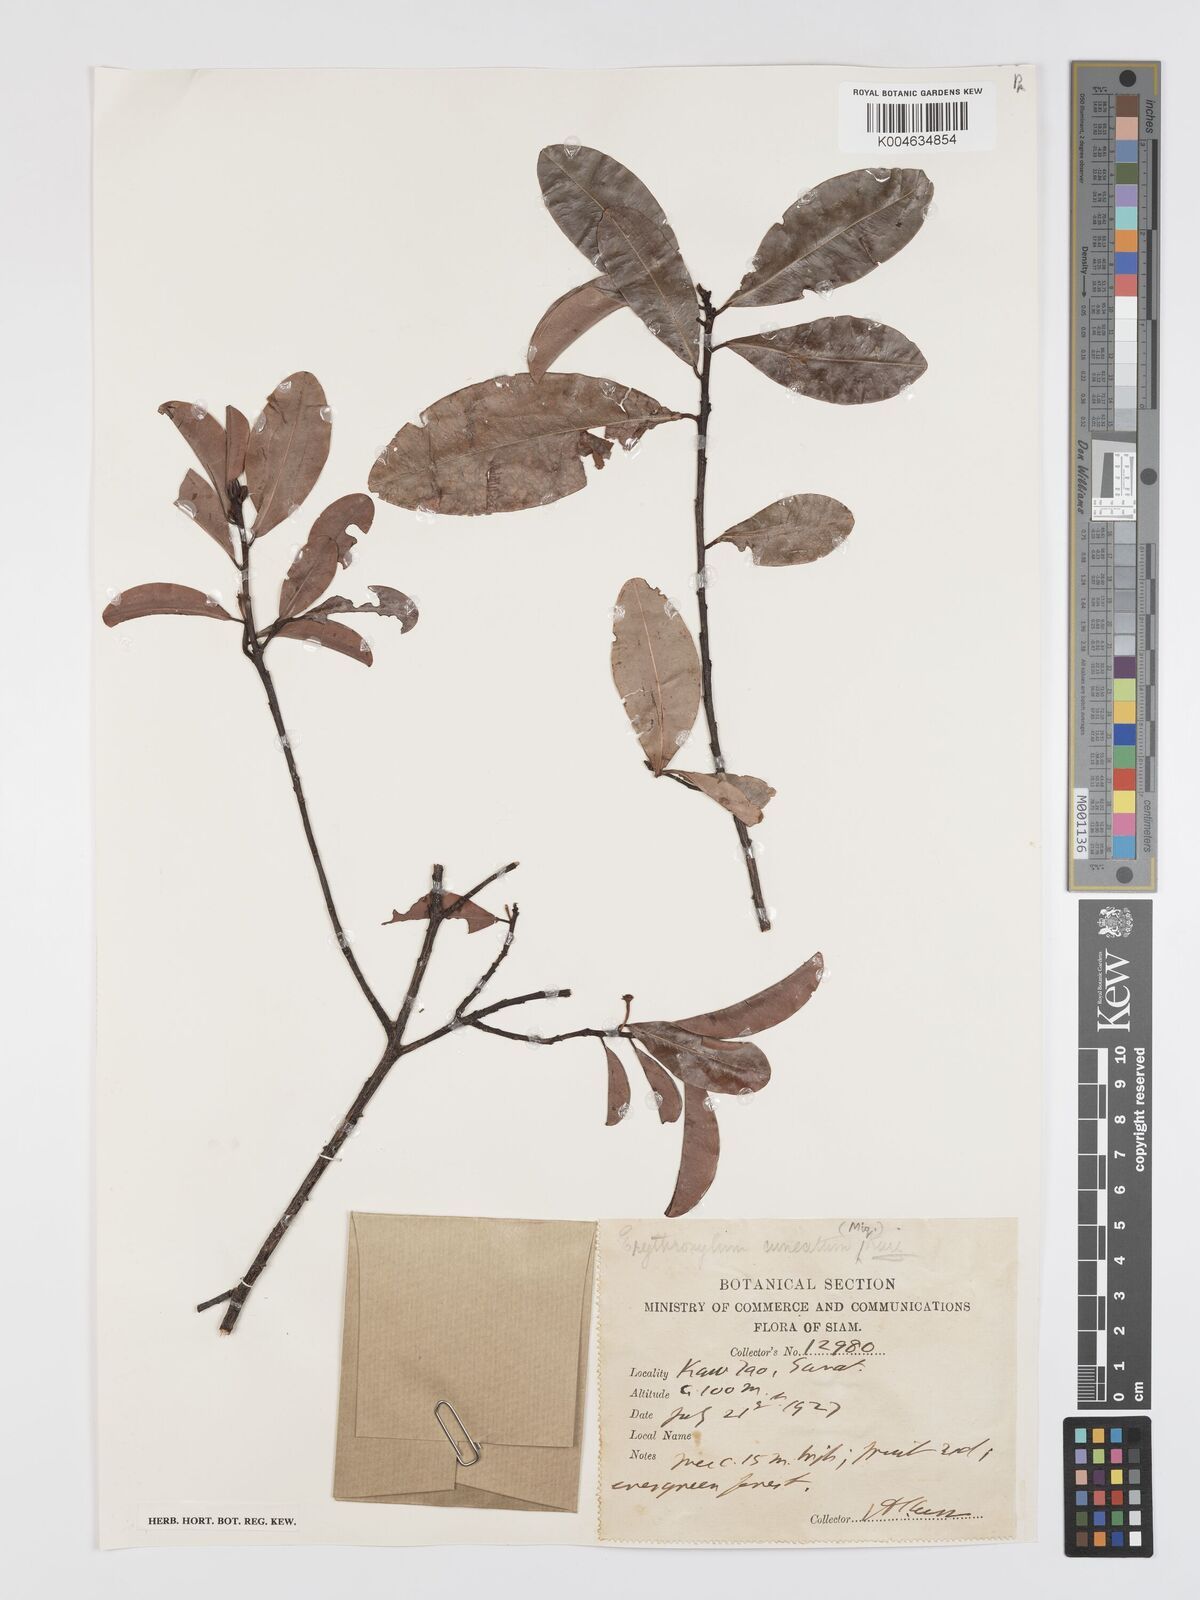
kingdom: Plantae
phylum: Tracheophyta
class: Magnoliopsida
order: Malpighiales
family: Erythroxylaceae
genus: Erythroxylum
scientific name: Erythroxylum cuneatum
